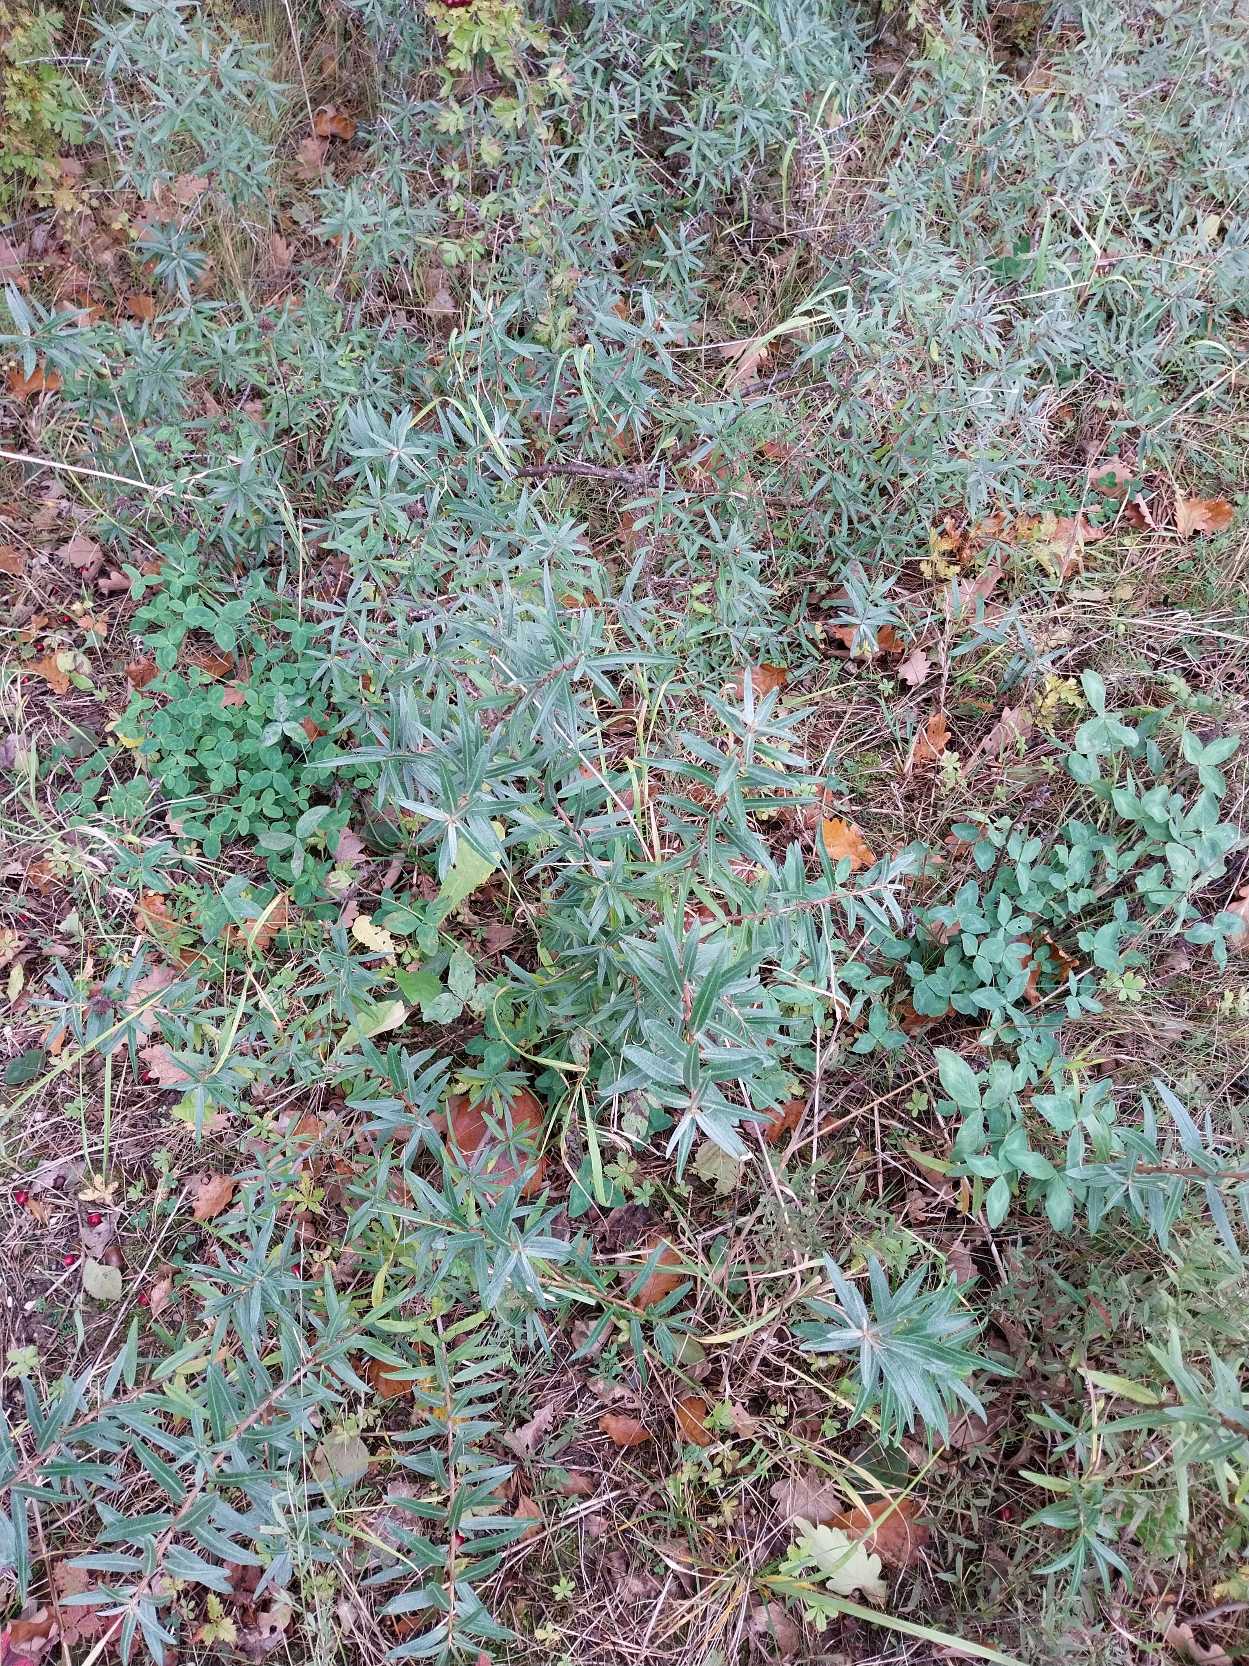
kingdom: Plantae
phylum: Tracheophyta
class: Magnoliopsida
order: Rosales
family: Elaeagnaceae
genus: Hippophae
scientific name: Hippophae rhamnoides
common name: Havtorn
